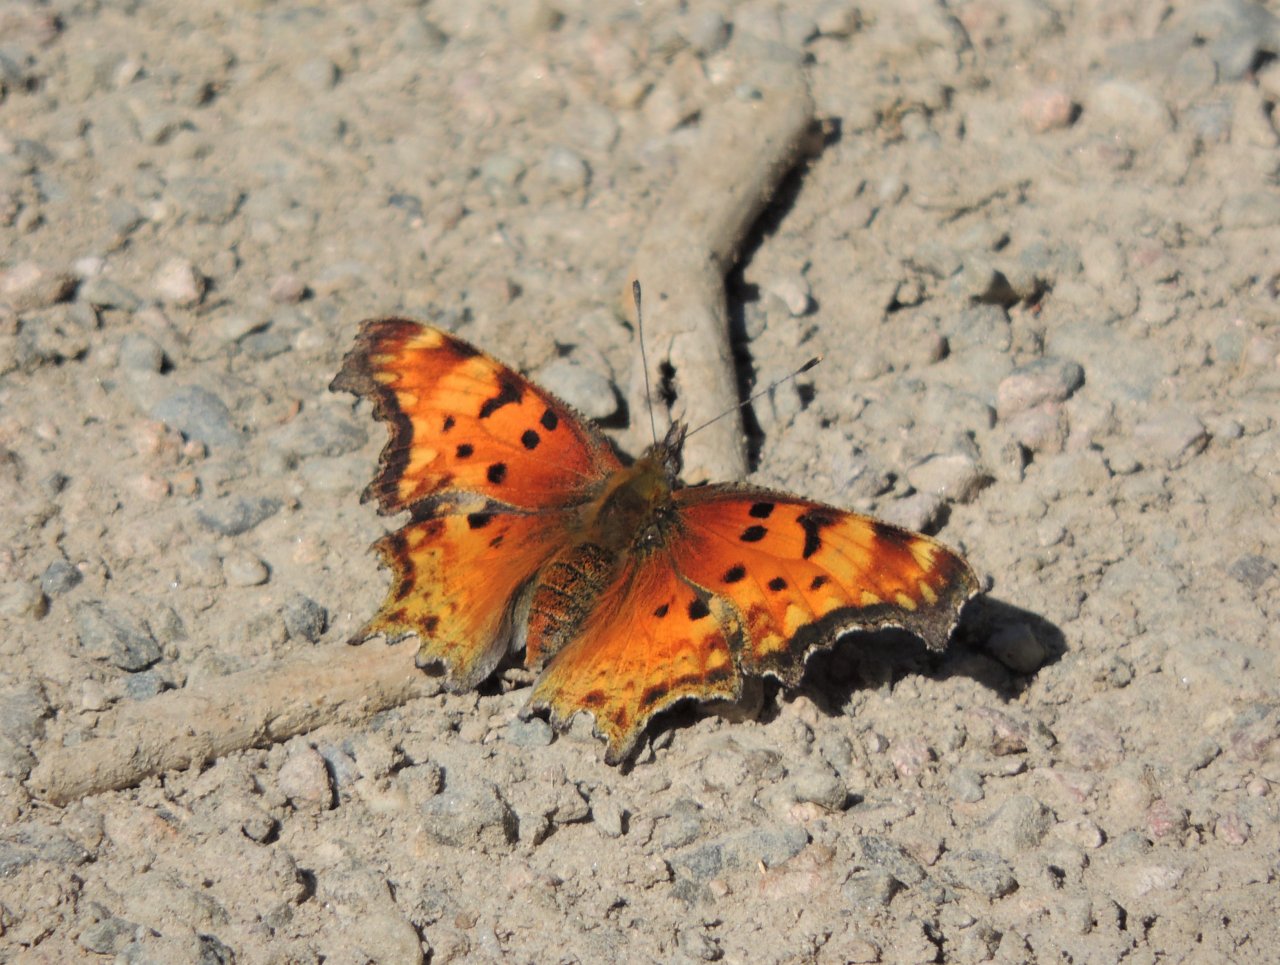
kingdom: Animalia
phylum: Arthropoda
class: Insecta
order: Lepidoptera
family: Nymphalidae
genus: Polygonia
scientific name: Polygonia gracilis
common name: Hoary Comma
